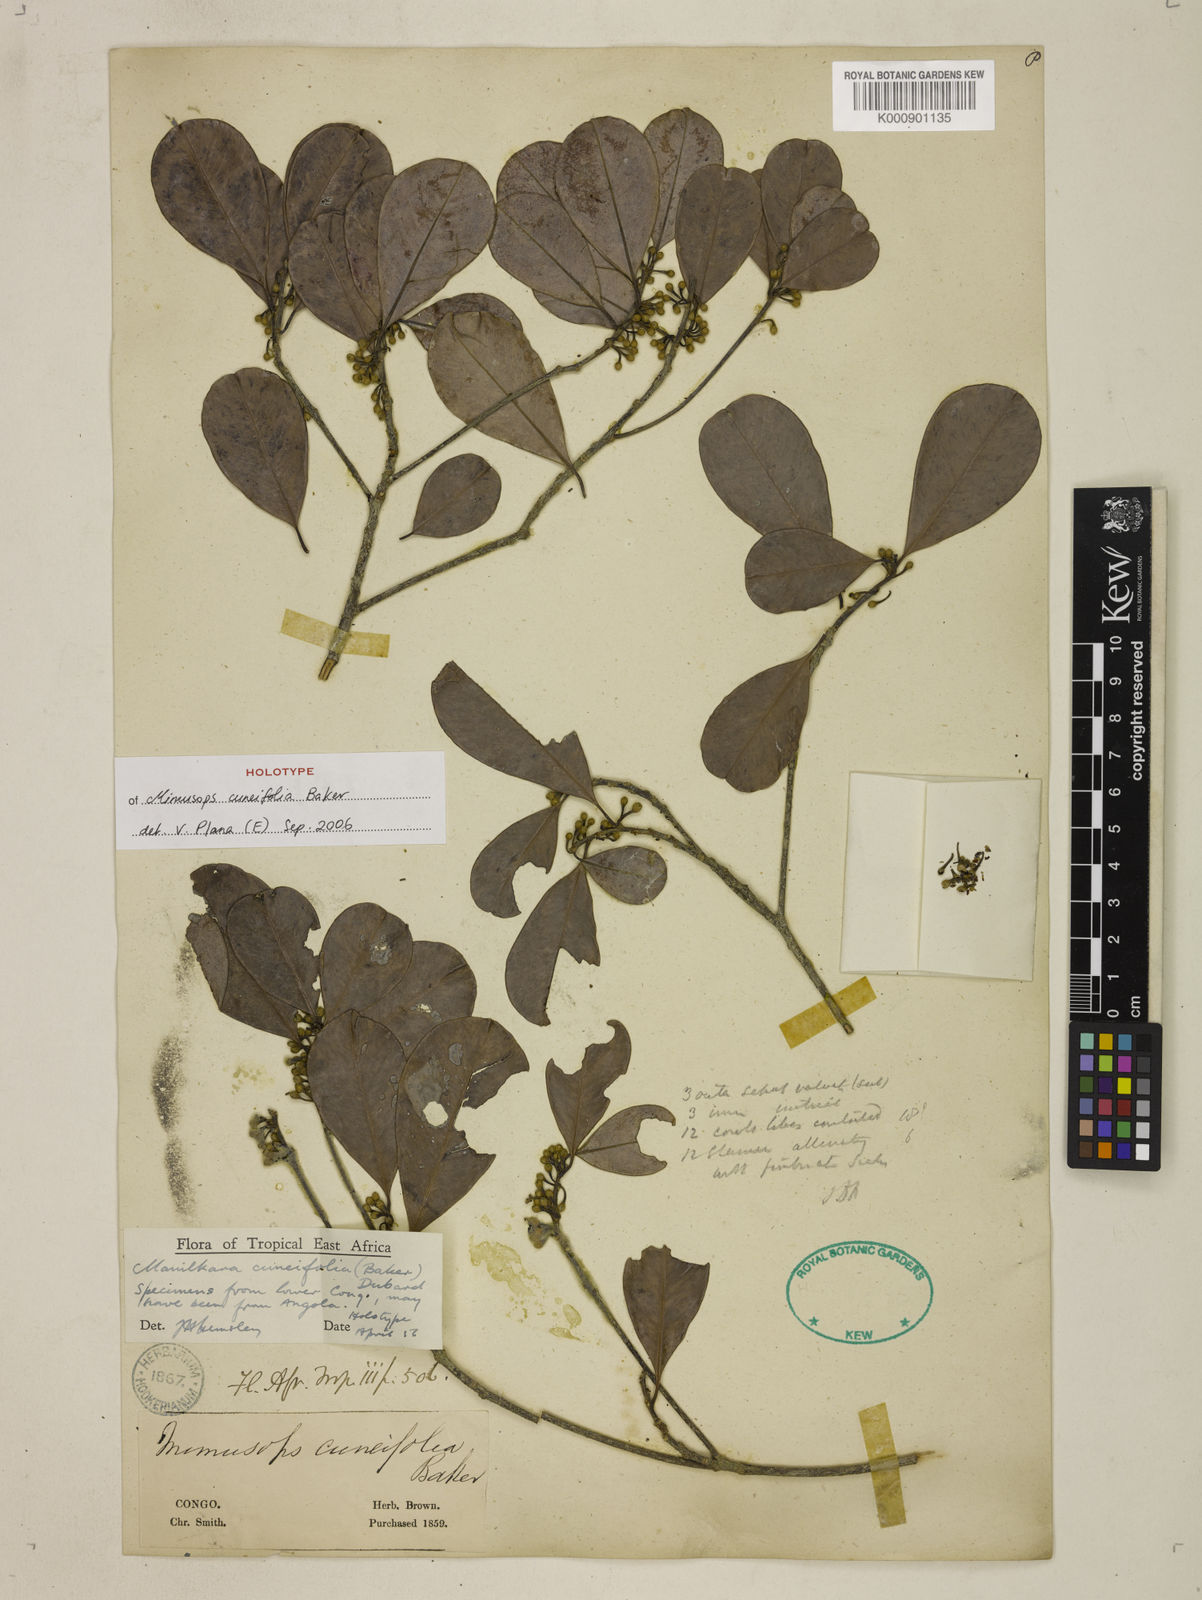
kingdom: Plantae
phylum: Tracheophyta
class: Magnoliopsida
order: Ericales
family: Sapotaceae
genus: Manilkara
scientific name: Manilkara obovata
